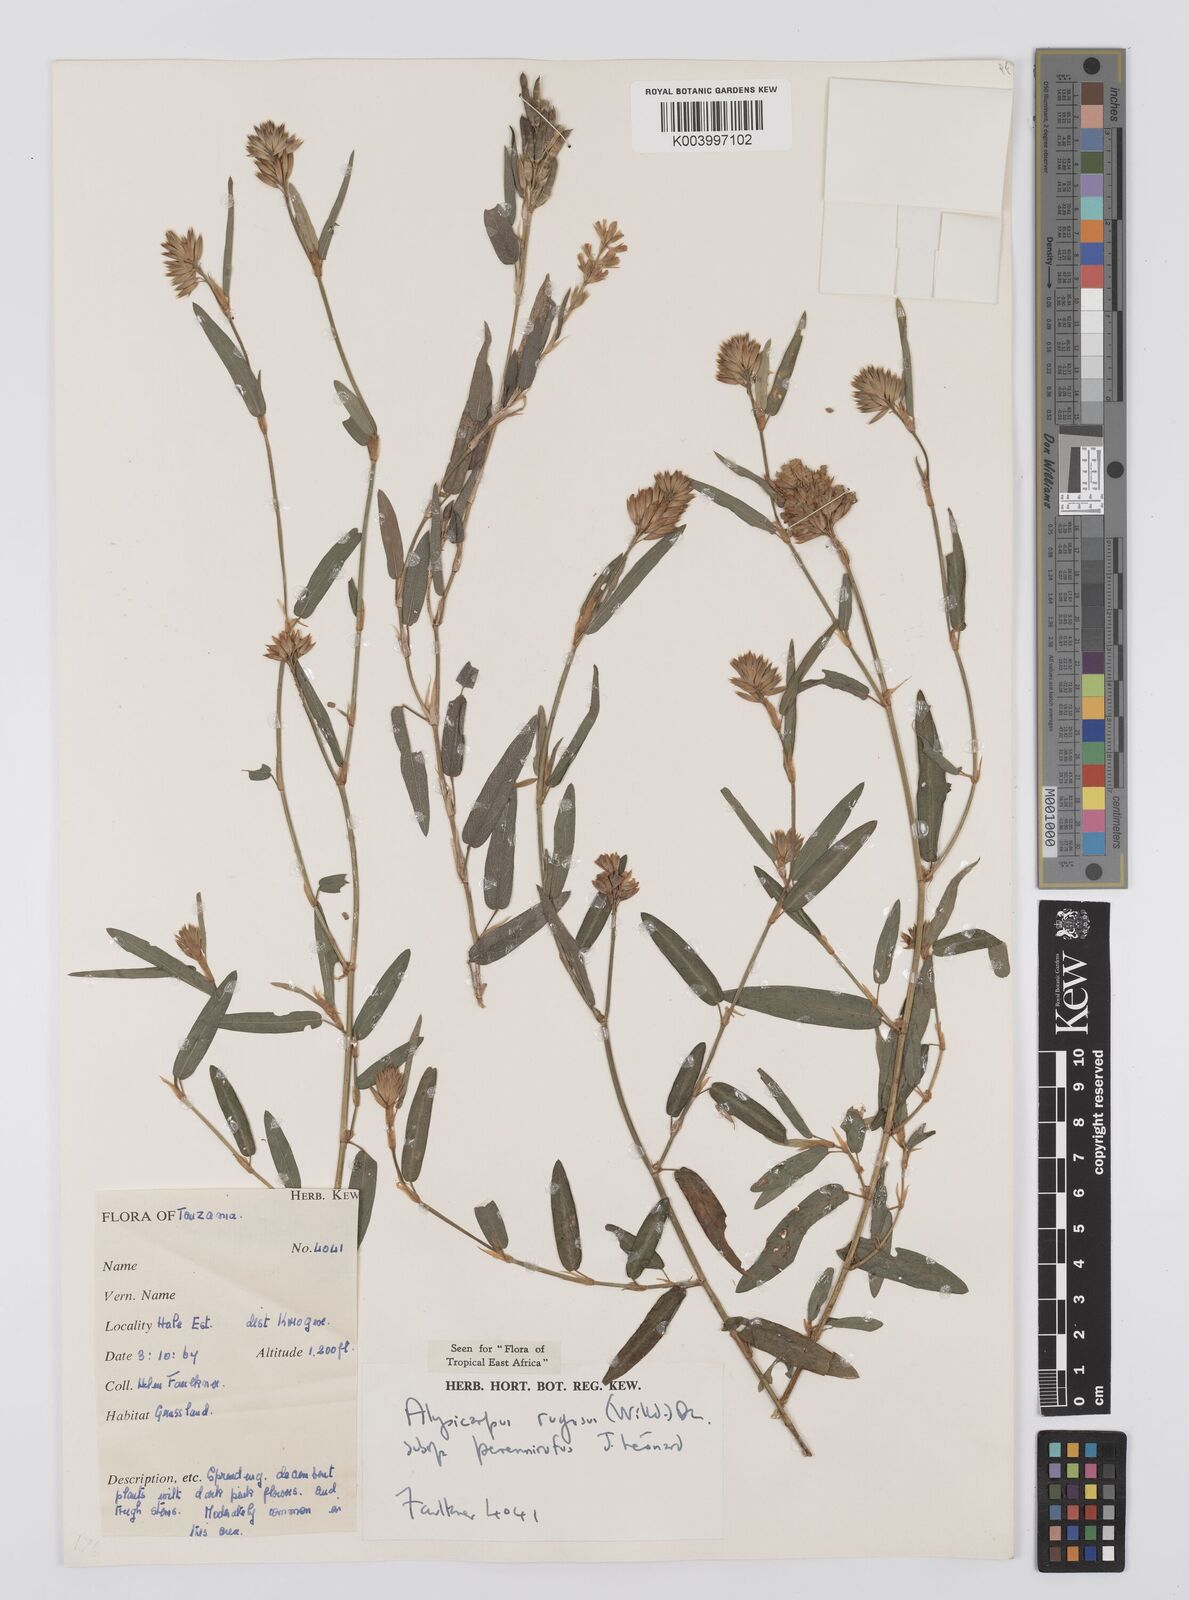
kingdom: Plantae
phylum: Tracheophyta
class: Magnoliopsida
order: Fabales
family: Fabaceae
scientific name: Fabaceae
